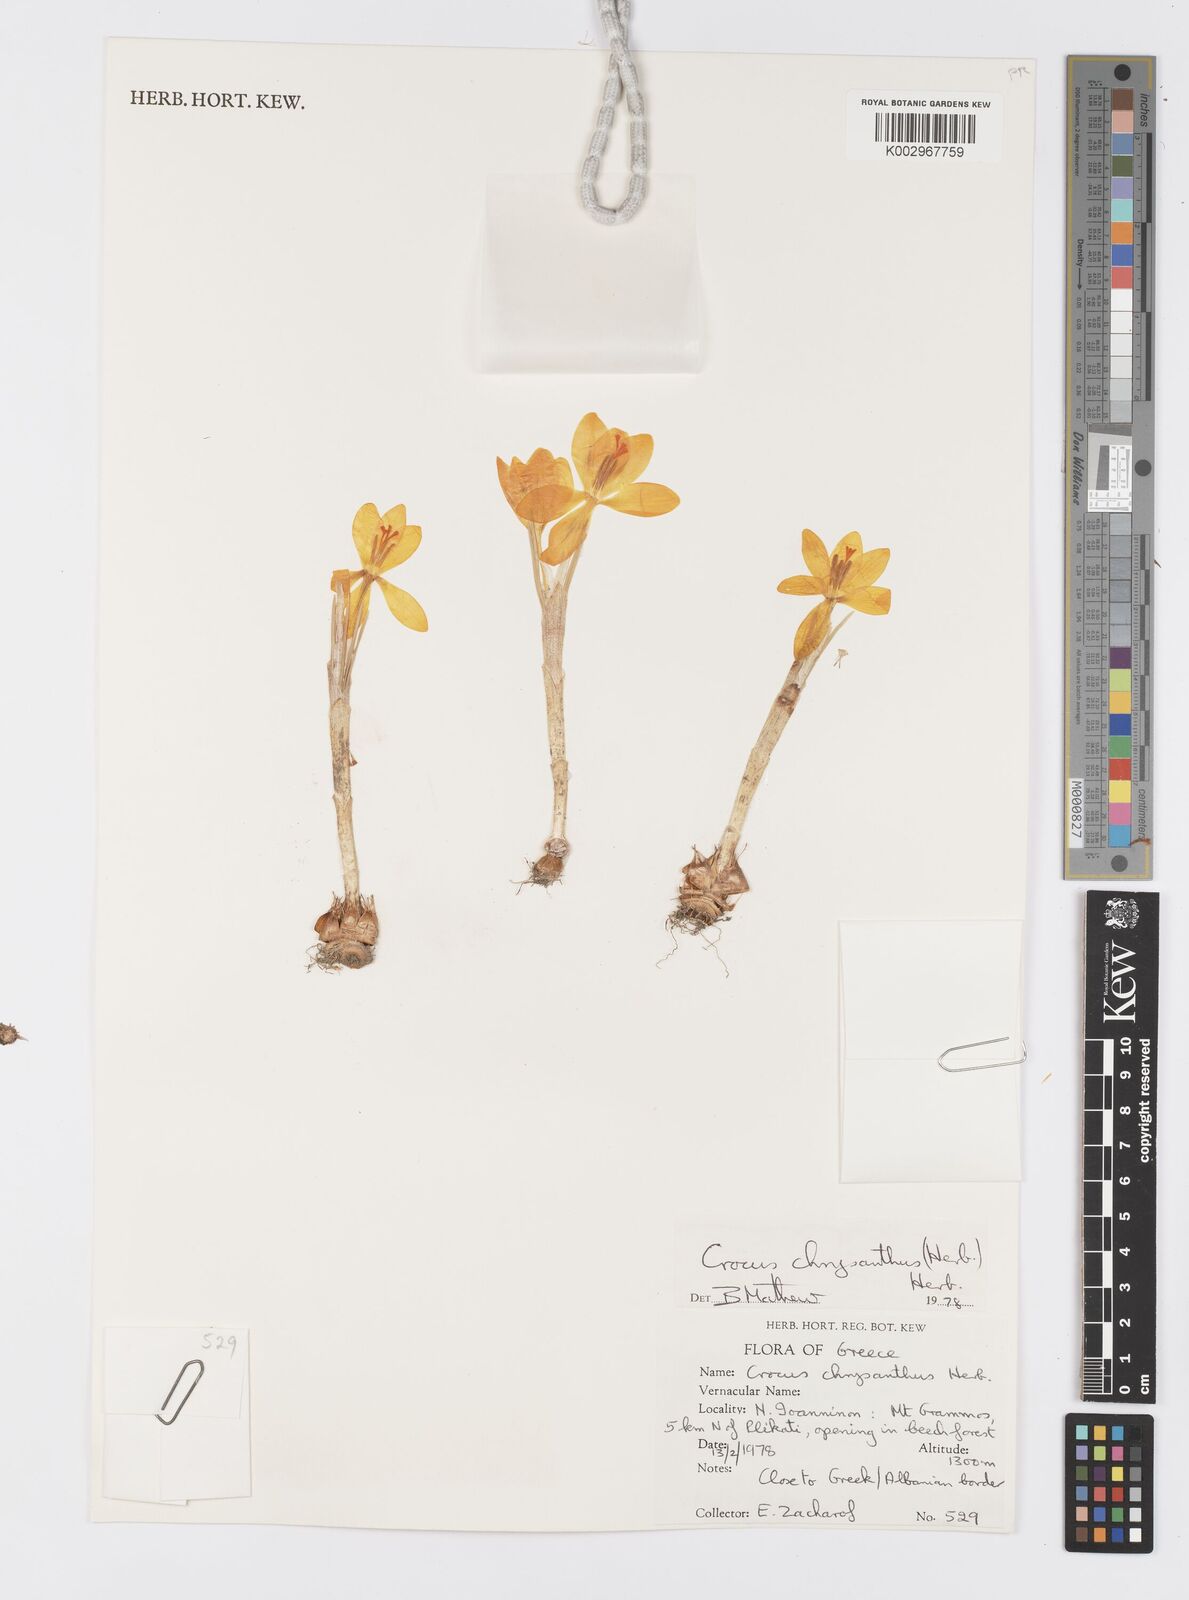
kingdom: Plantae
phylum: Tracheophyta
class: Liliopsida
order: Asparagales
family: Iridaceae
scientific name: Iridaceae
